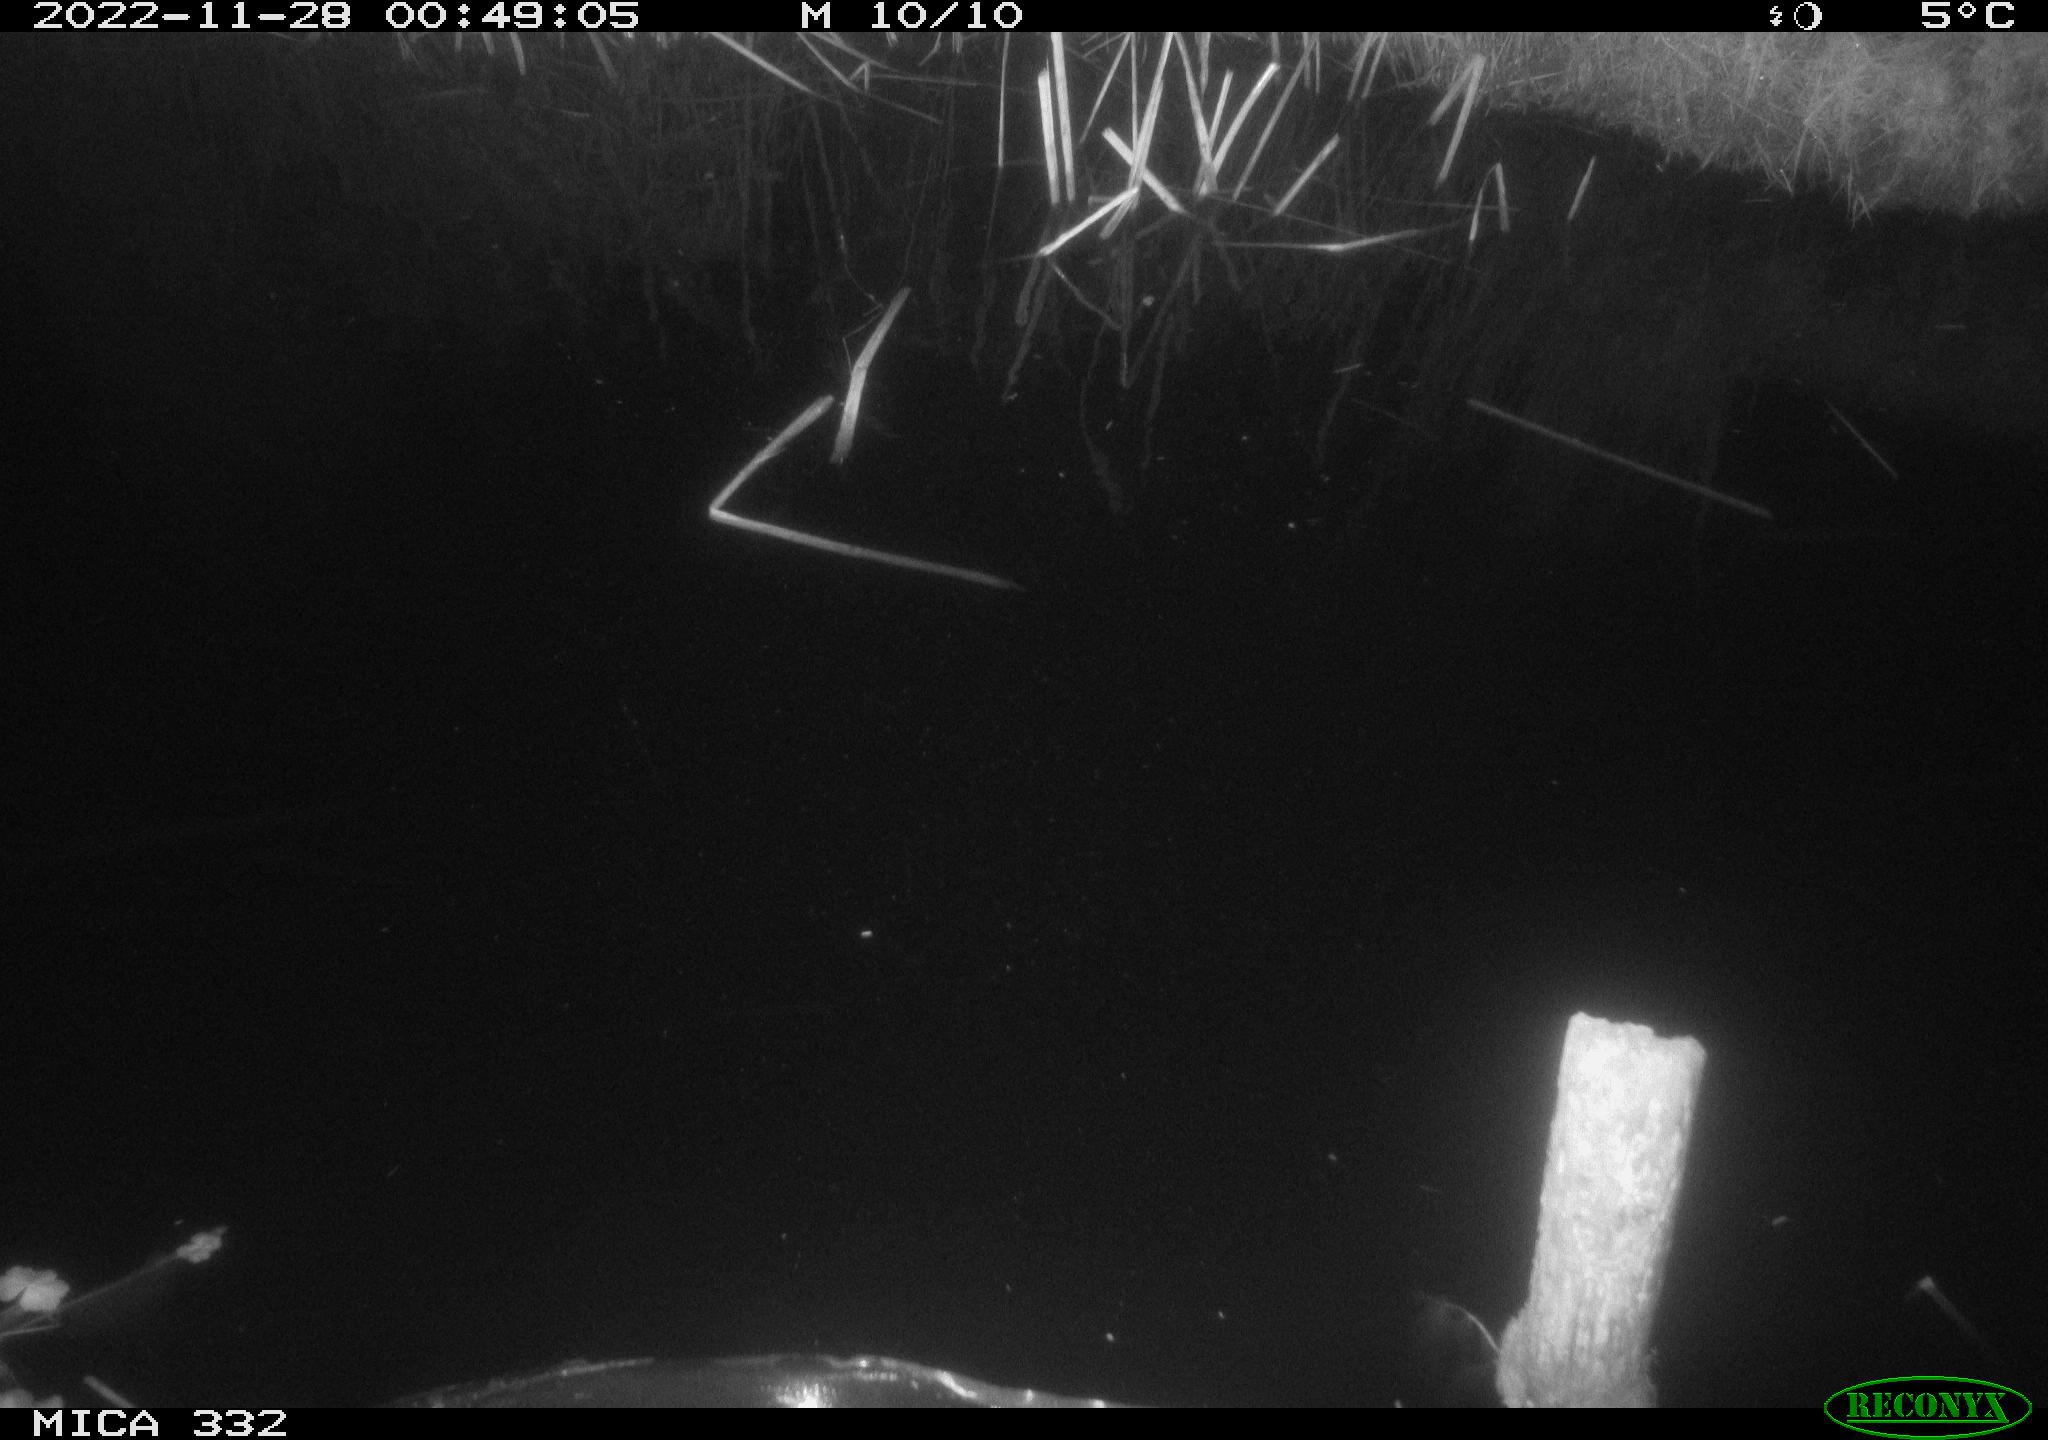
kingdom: Animalia
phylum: Chordata
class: Aves
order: Anseriformes
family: Anatidae
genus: Anas
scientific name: Anas
